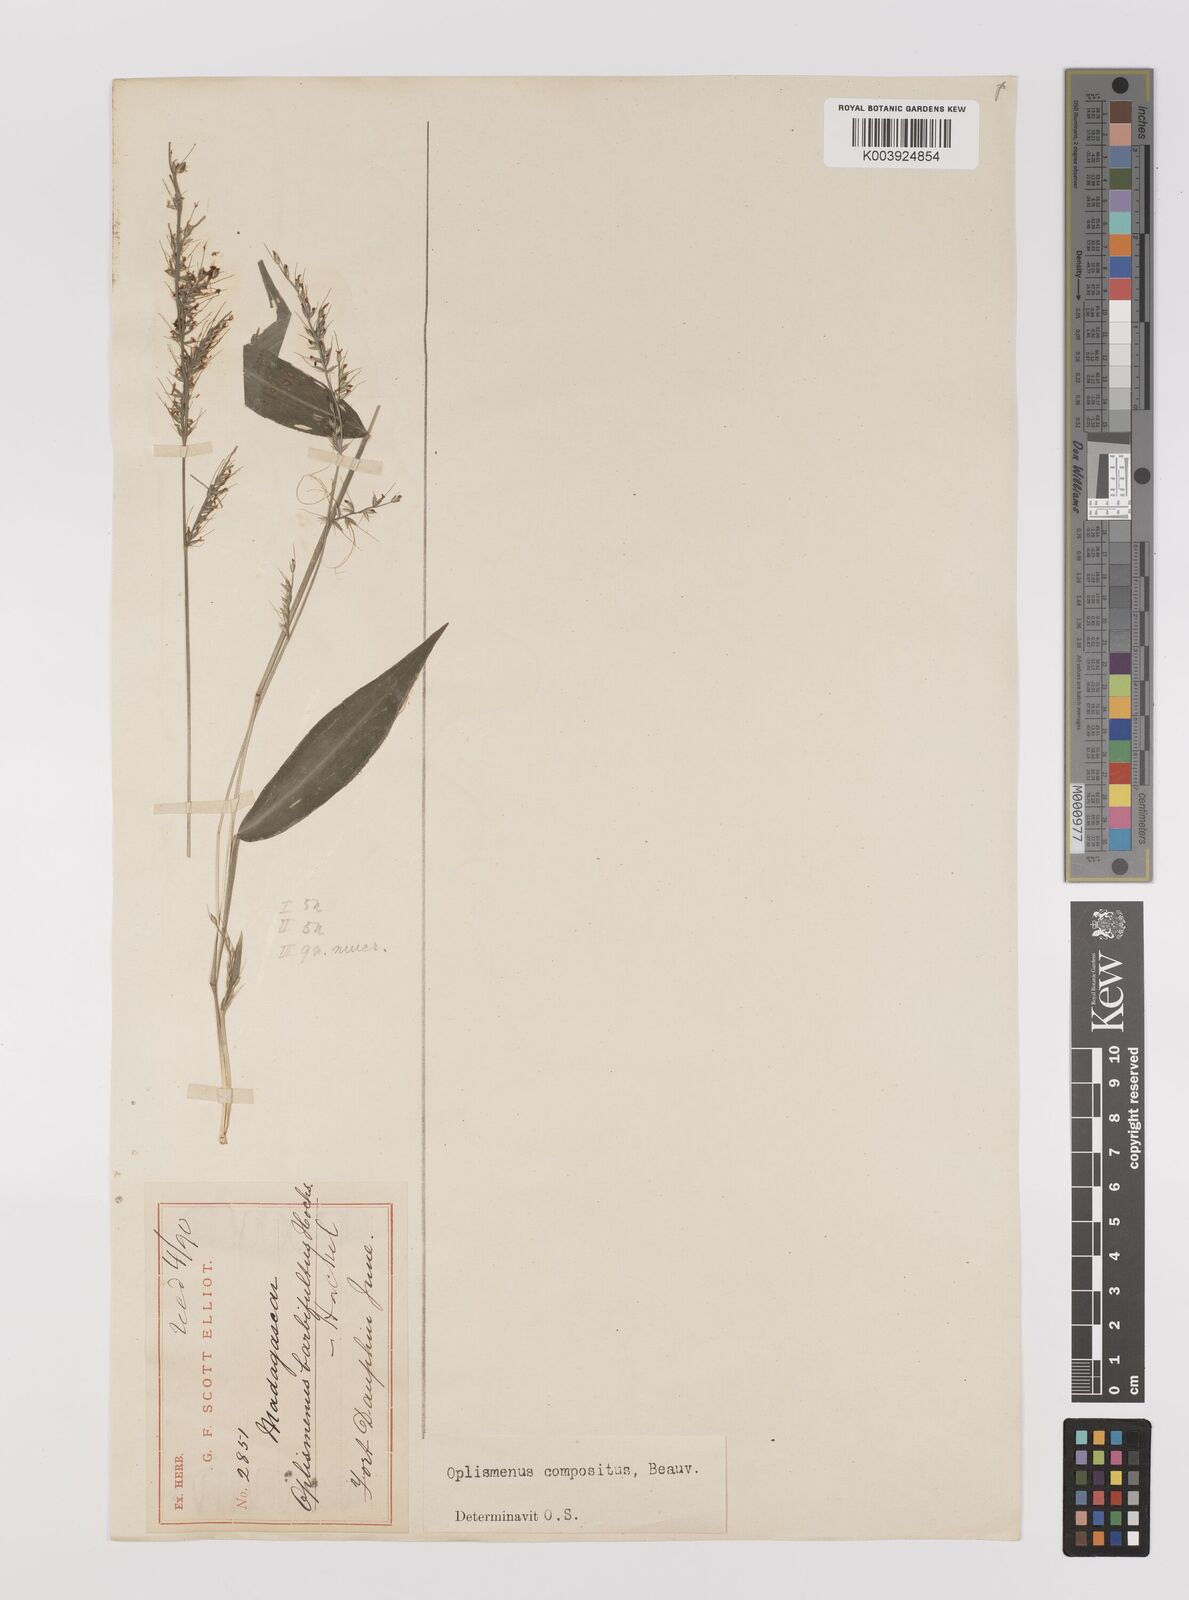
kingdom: Plantae
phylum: Tracheophyta
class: Liliopsida
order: Poales
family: Poaceae
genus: Oplismenus
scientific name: Oplismenus compositus
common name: Running mountain grass
